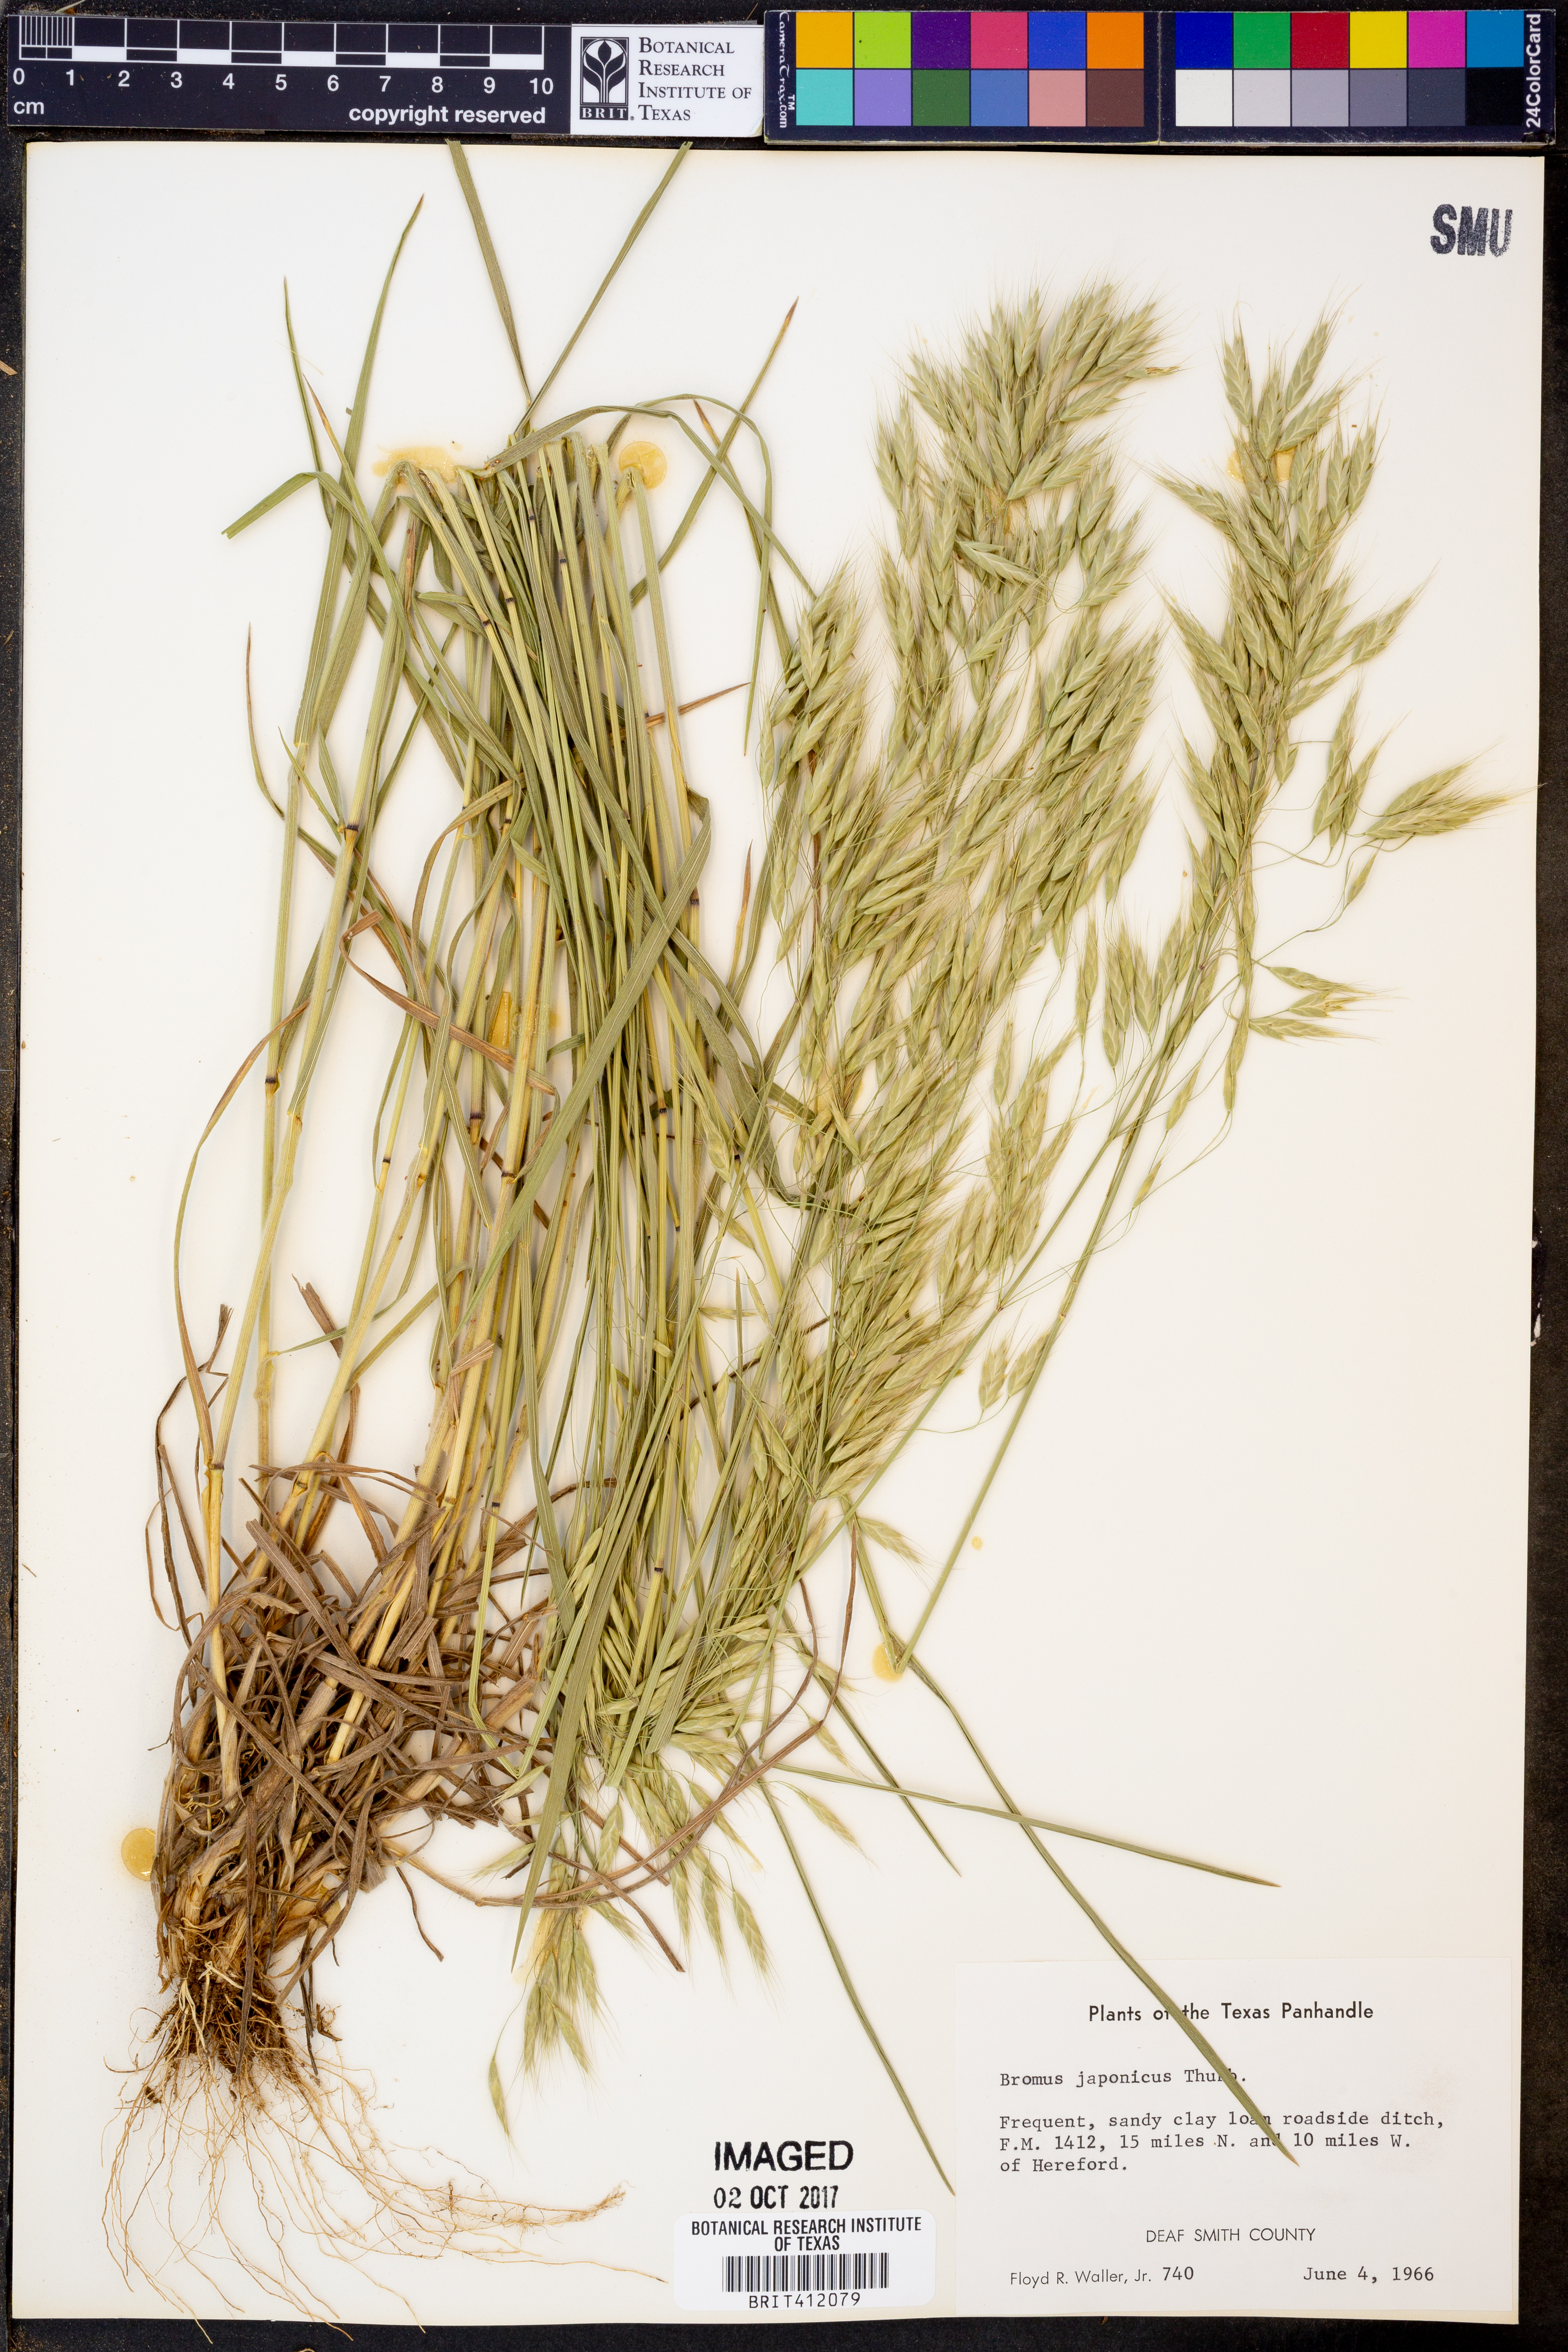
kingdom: Plantae
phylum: Tracheophyta
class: Liliopsida
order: Poales
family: Poaceae
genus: Bromus
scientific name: Bromus japonicus
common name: Japanese brome
